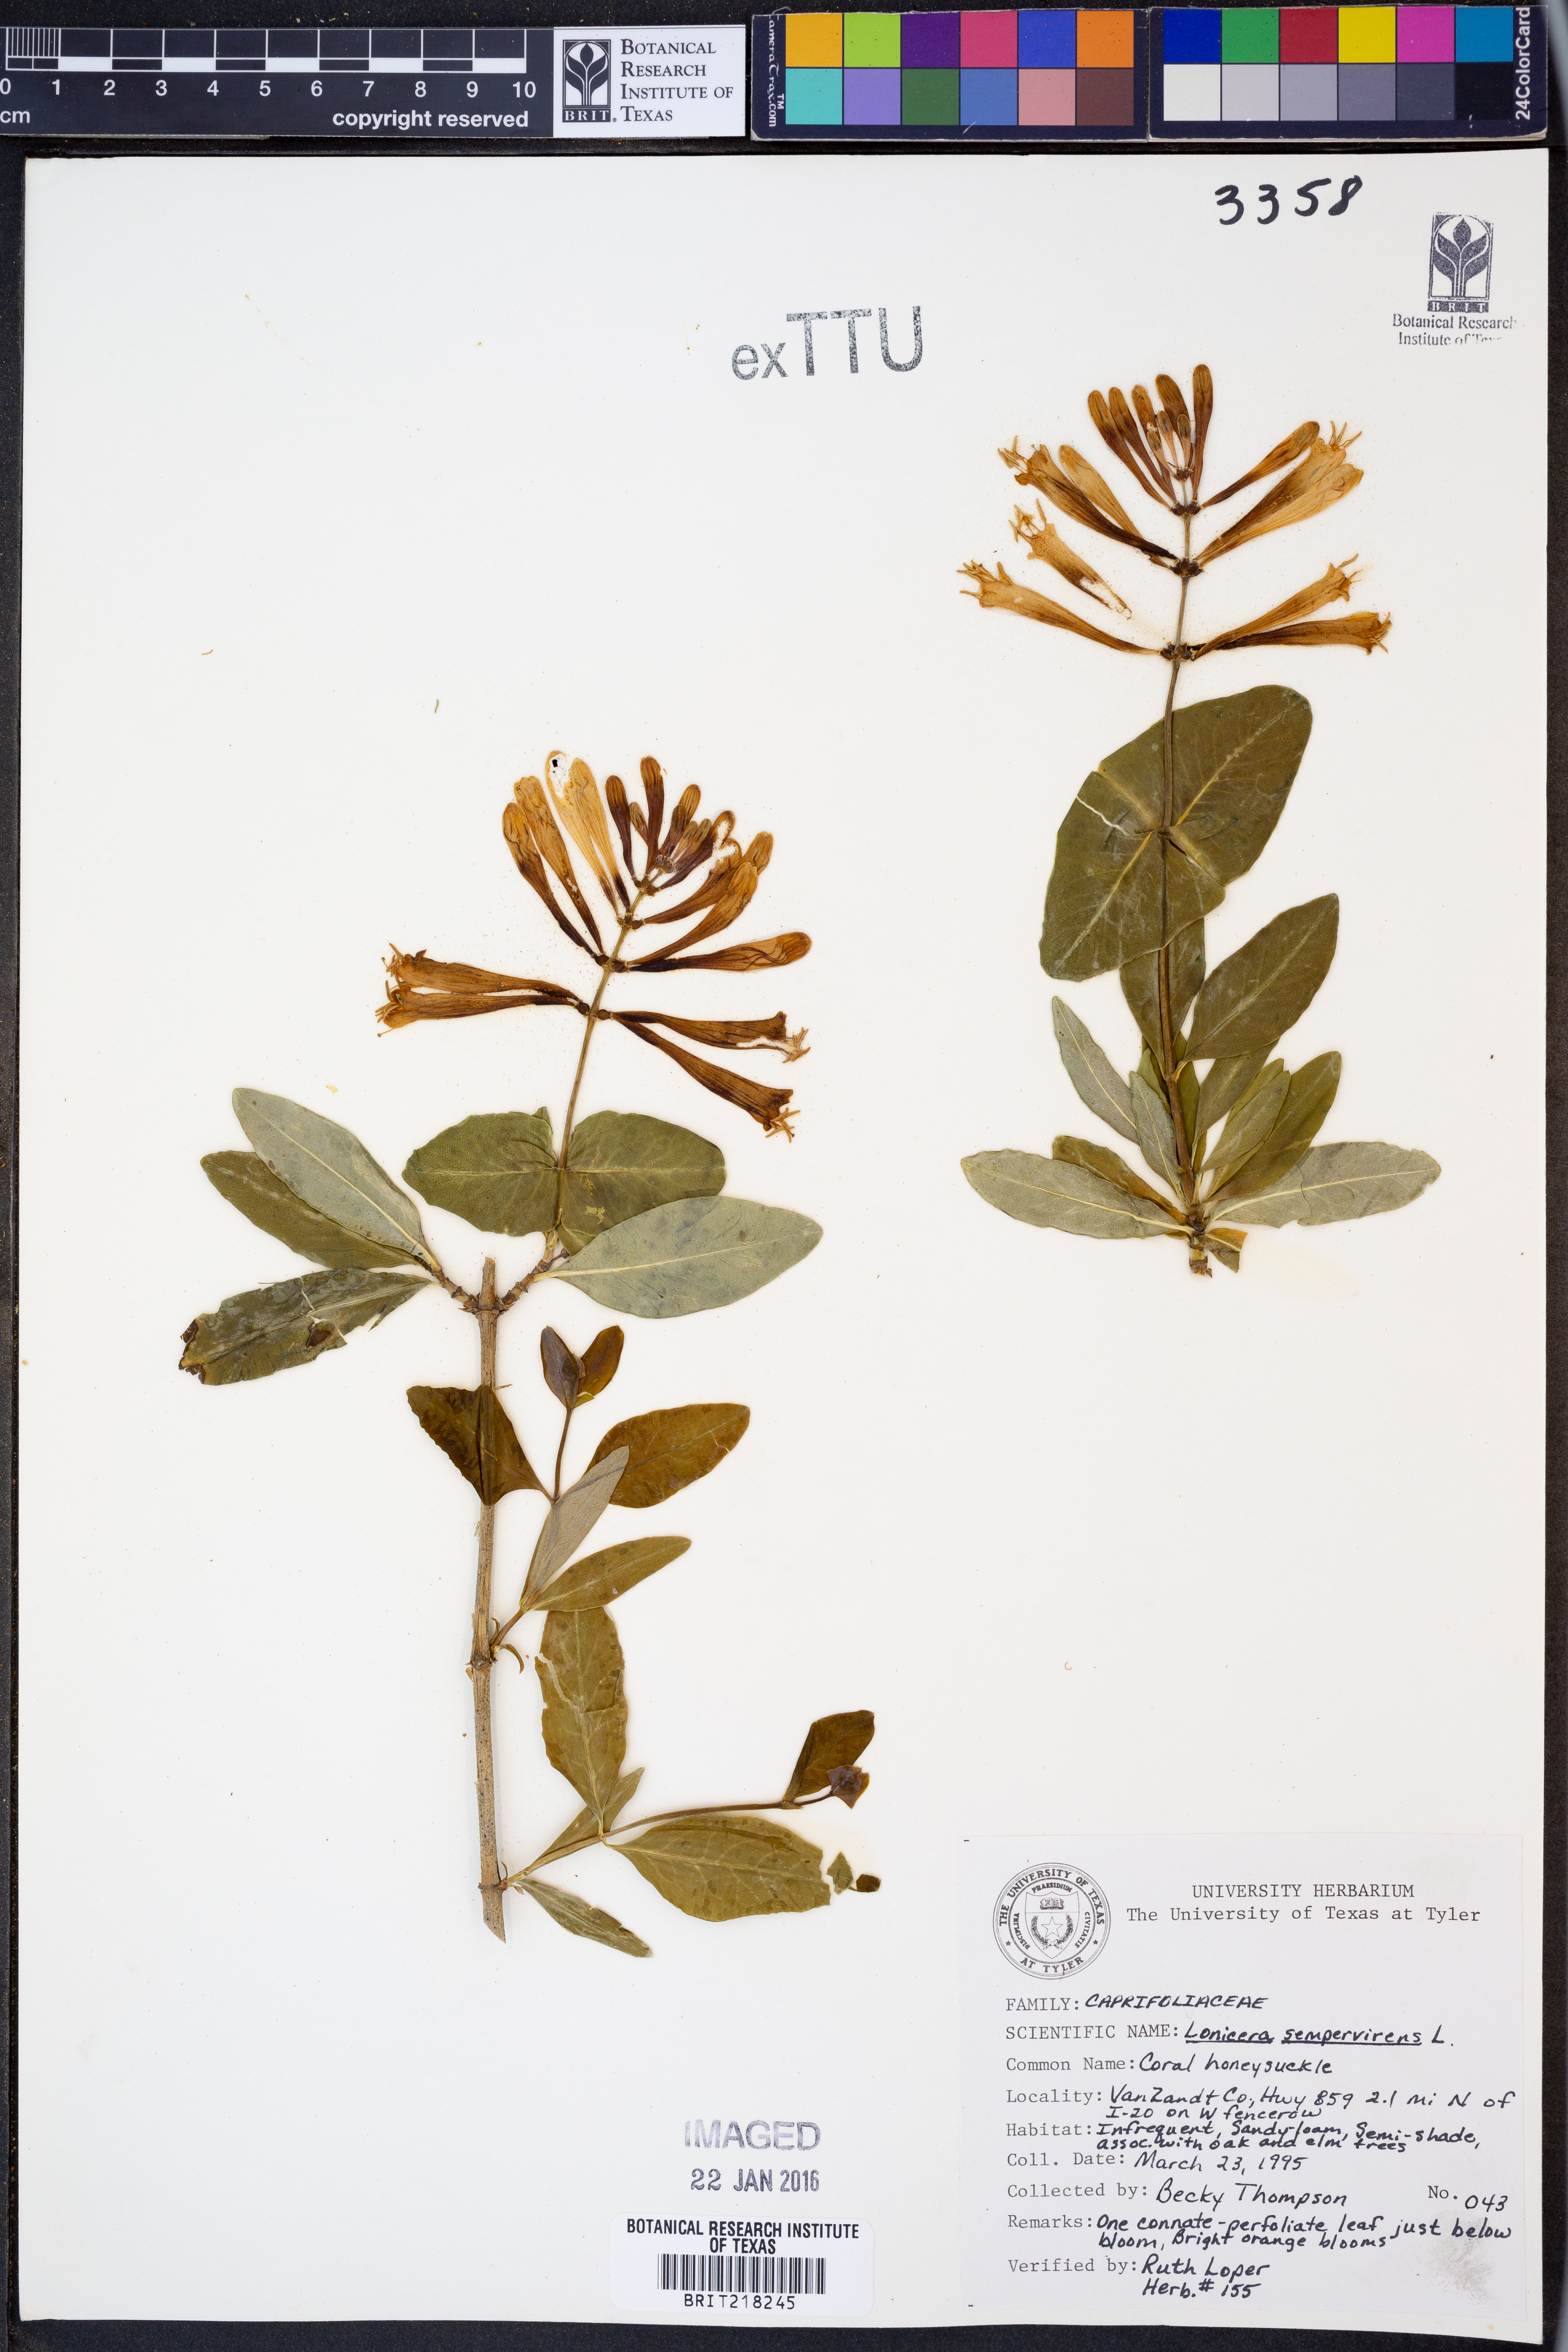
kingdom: Plantae
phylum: Tracheophyta
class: Magnoliopsida
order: Dipsacales
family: Caprifoliaceae
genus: Lonicera
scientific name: Lonicera sempervirens
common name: Coral honeysuckle
